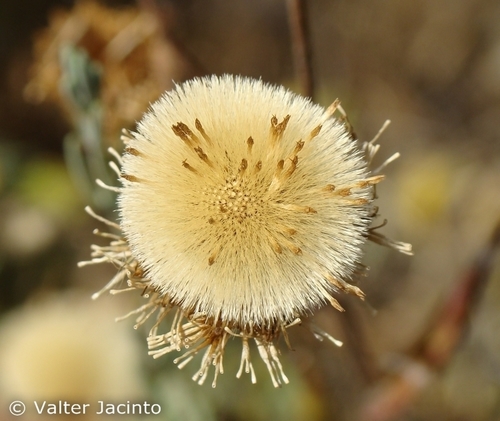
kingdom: Plantae
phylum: Tracheophyta
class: Magnoliopsida
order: Asterales
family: Asteraceae
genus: Pulicaria
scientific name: Pulicaria odora
